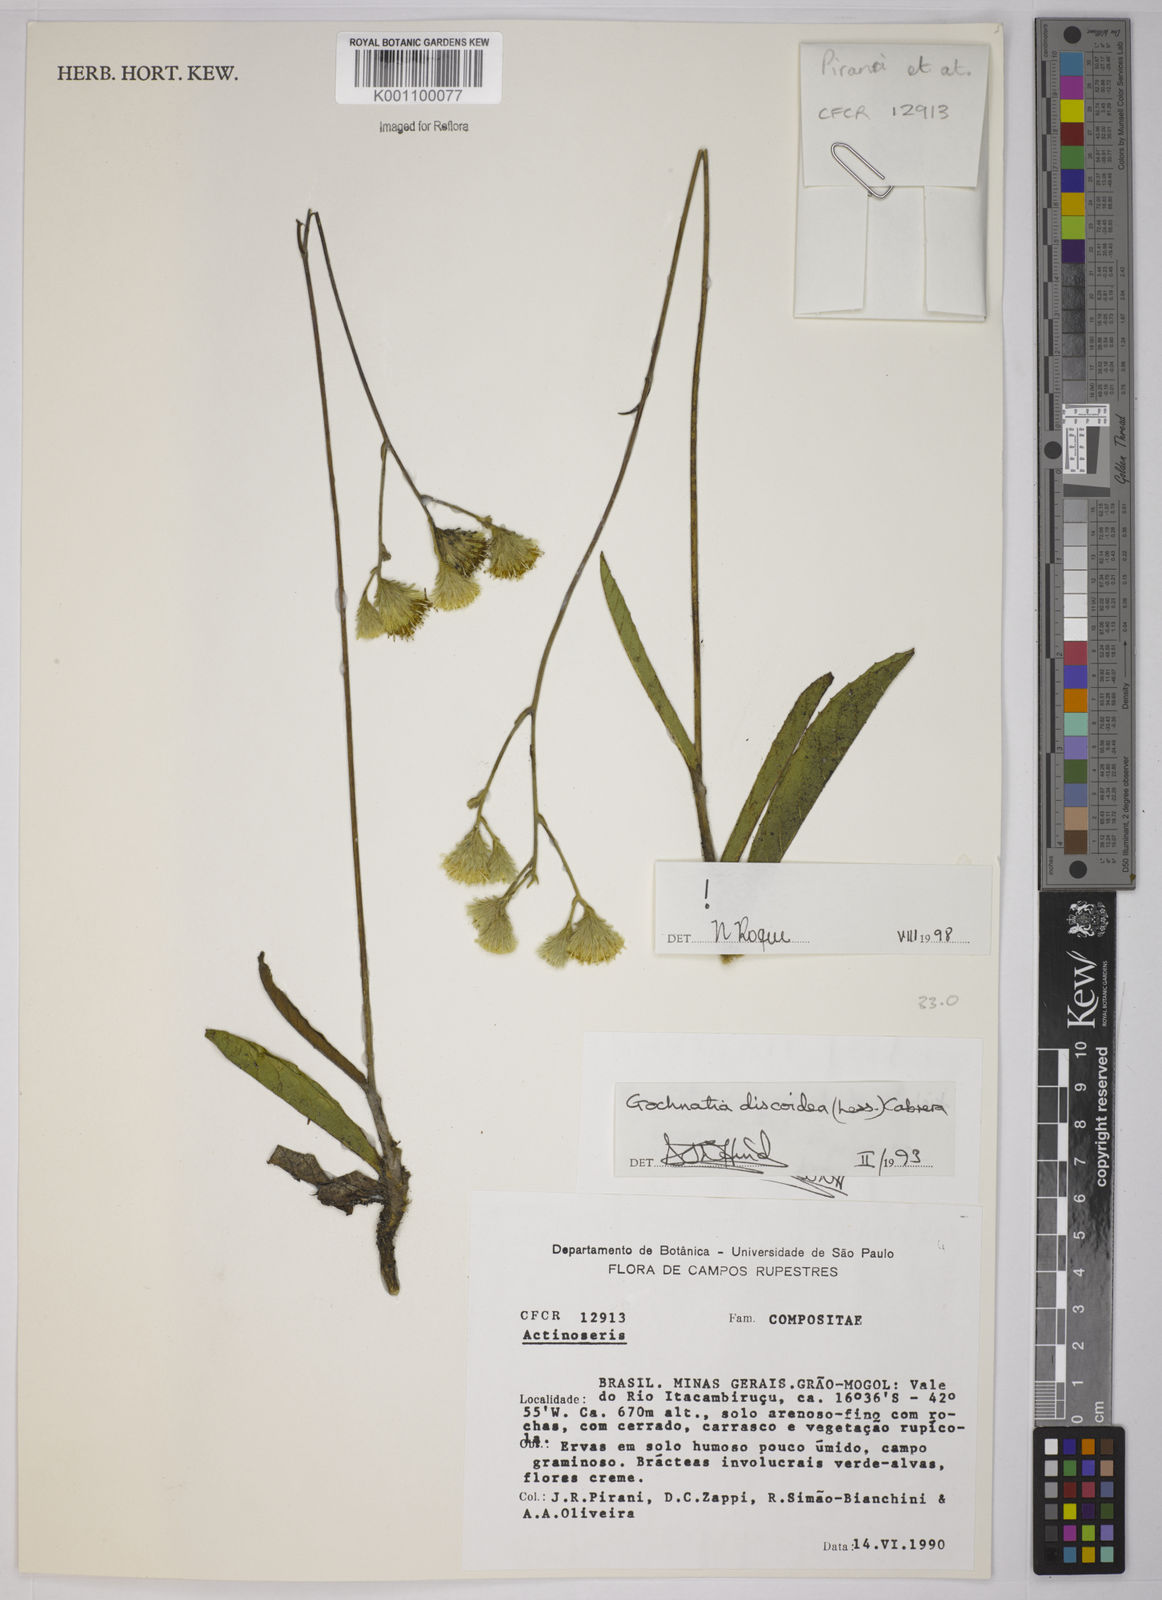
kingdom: Plantae
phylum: Tracheophyta
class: Magnoliopsida
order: Asterales
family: Asteraceae
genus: Richterago
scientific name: Richterago discoidea
